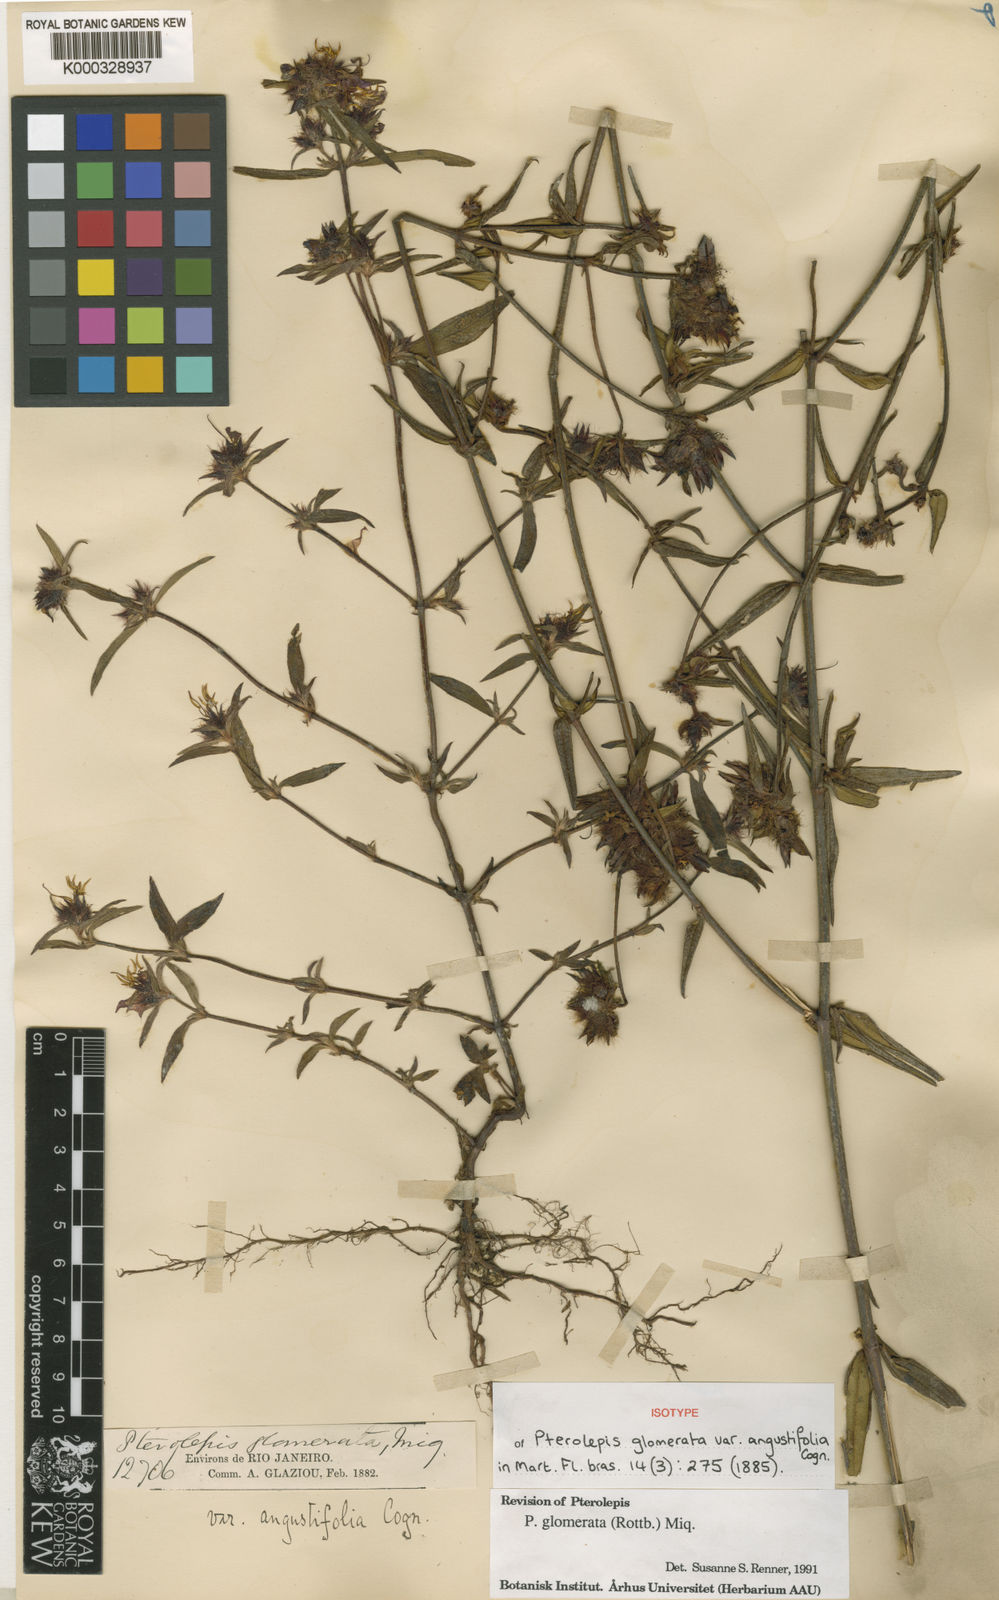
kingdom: Plantae
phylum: Tracheophyta
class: Magnoliopsida
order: Myrtales
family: Melastomataceae
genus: Pterolepis
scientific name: Pterolepis glomerata
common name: False meadowbeauty
